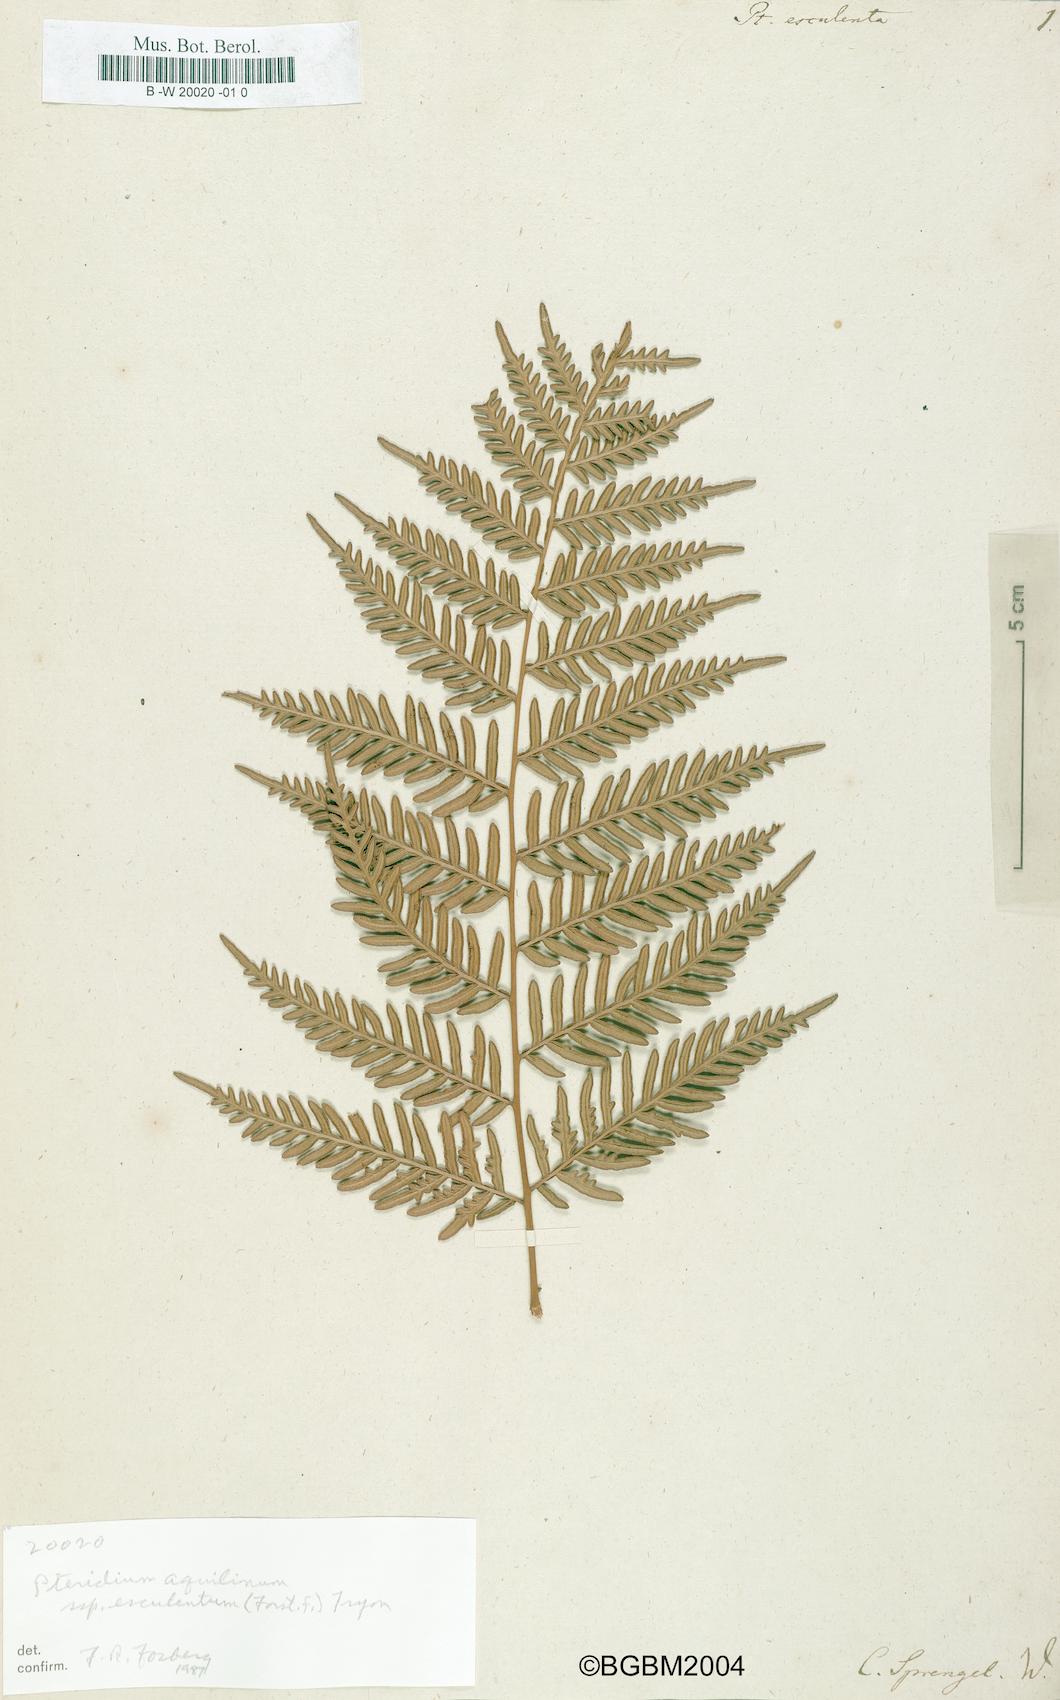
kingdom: Plantae
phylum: Tracheophyta
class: Polypodiopsida
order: Polypodiales
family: Dennstaedtiaceae
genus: Pteridium
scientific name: Pteridium esculentum
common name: Bracken fern
